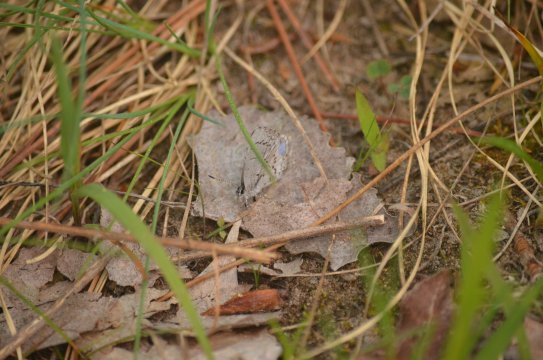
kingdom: Animalia
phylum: Arthropoda
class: Insecta
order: Lepidoptera
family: Lycaenidae
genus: Celastrina
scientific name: Celastrina lucia
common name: Northern Spring Azure
